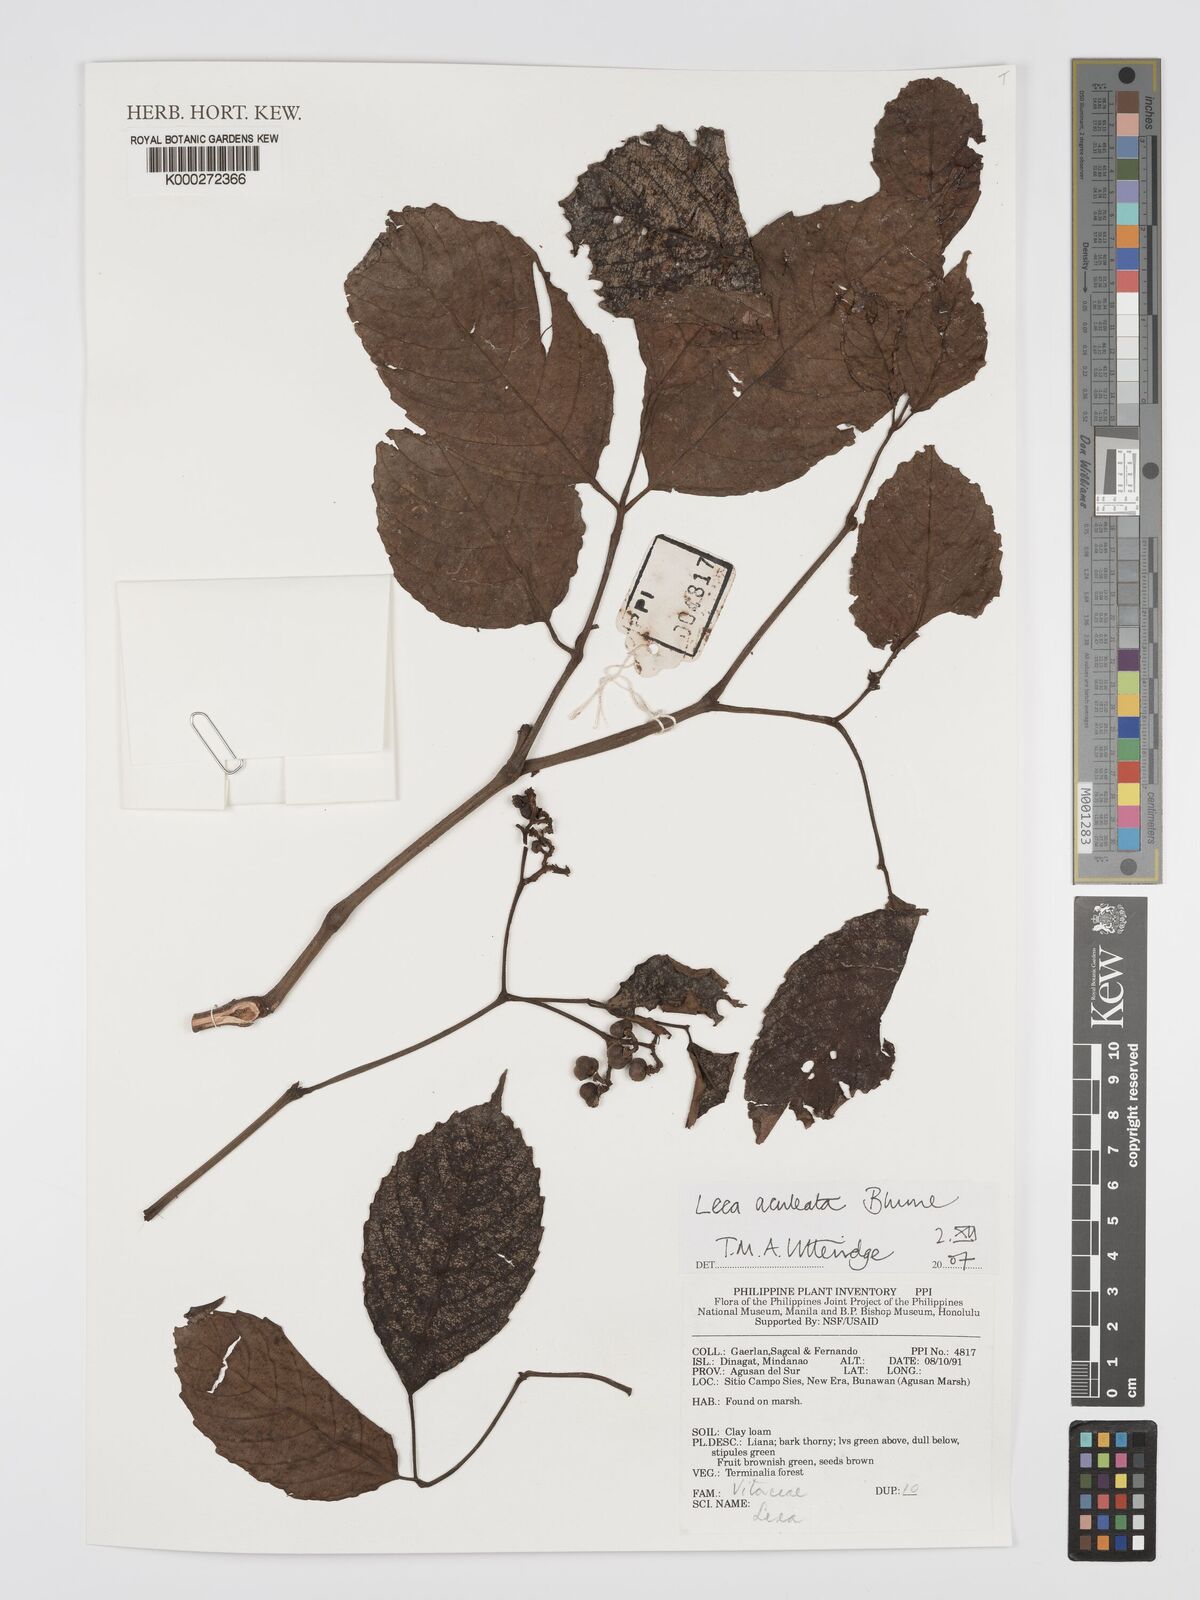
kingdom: Plantae
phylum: Tracheophyta
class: Magnoliopsida
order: Vitales
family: Vitaceae
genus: Leea
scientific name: Leea aculeata
